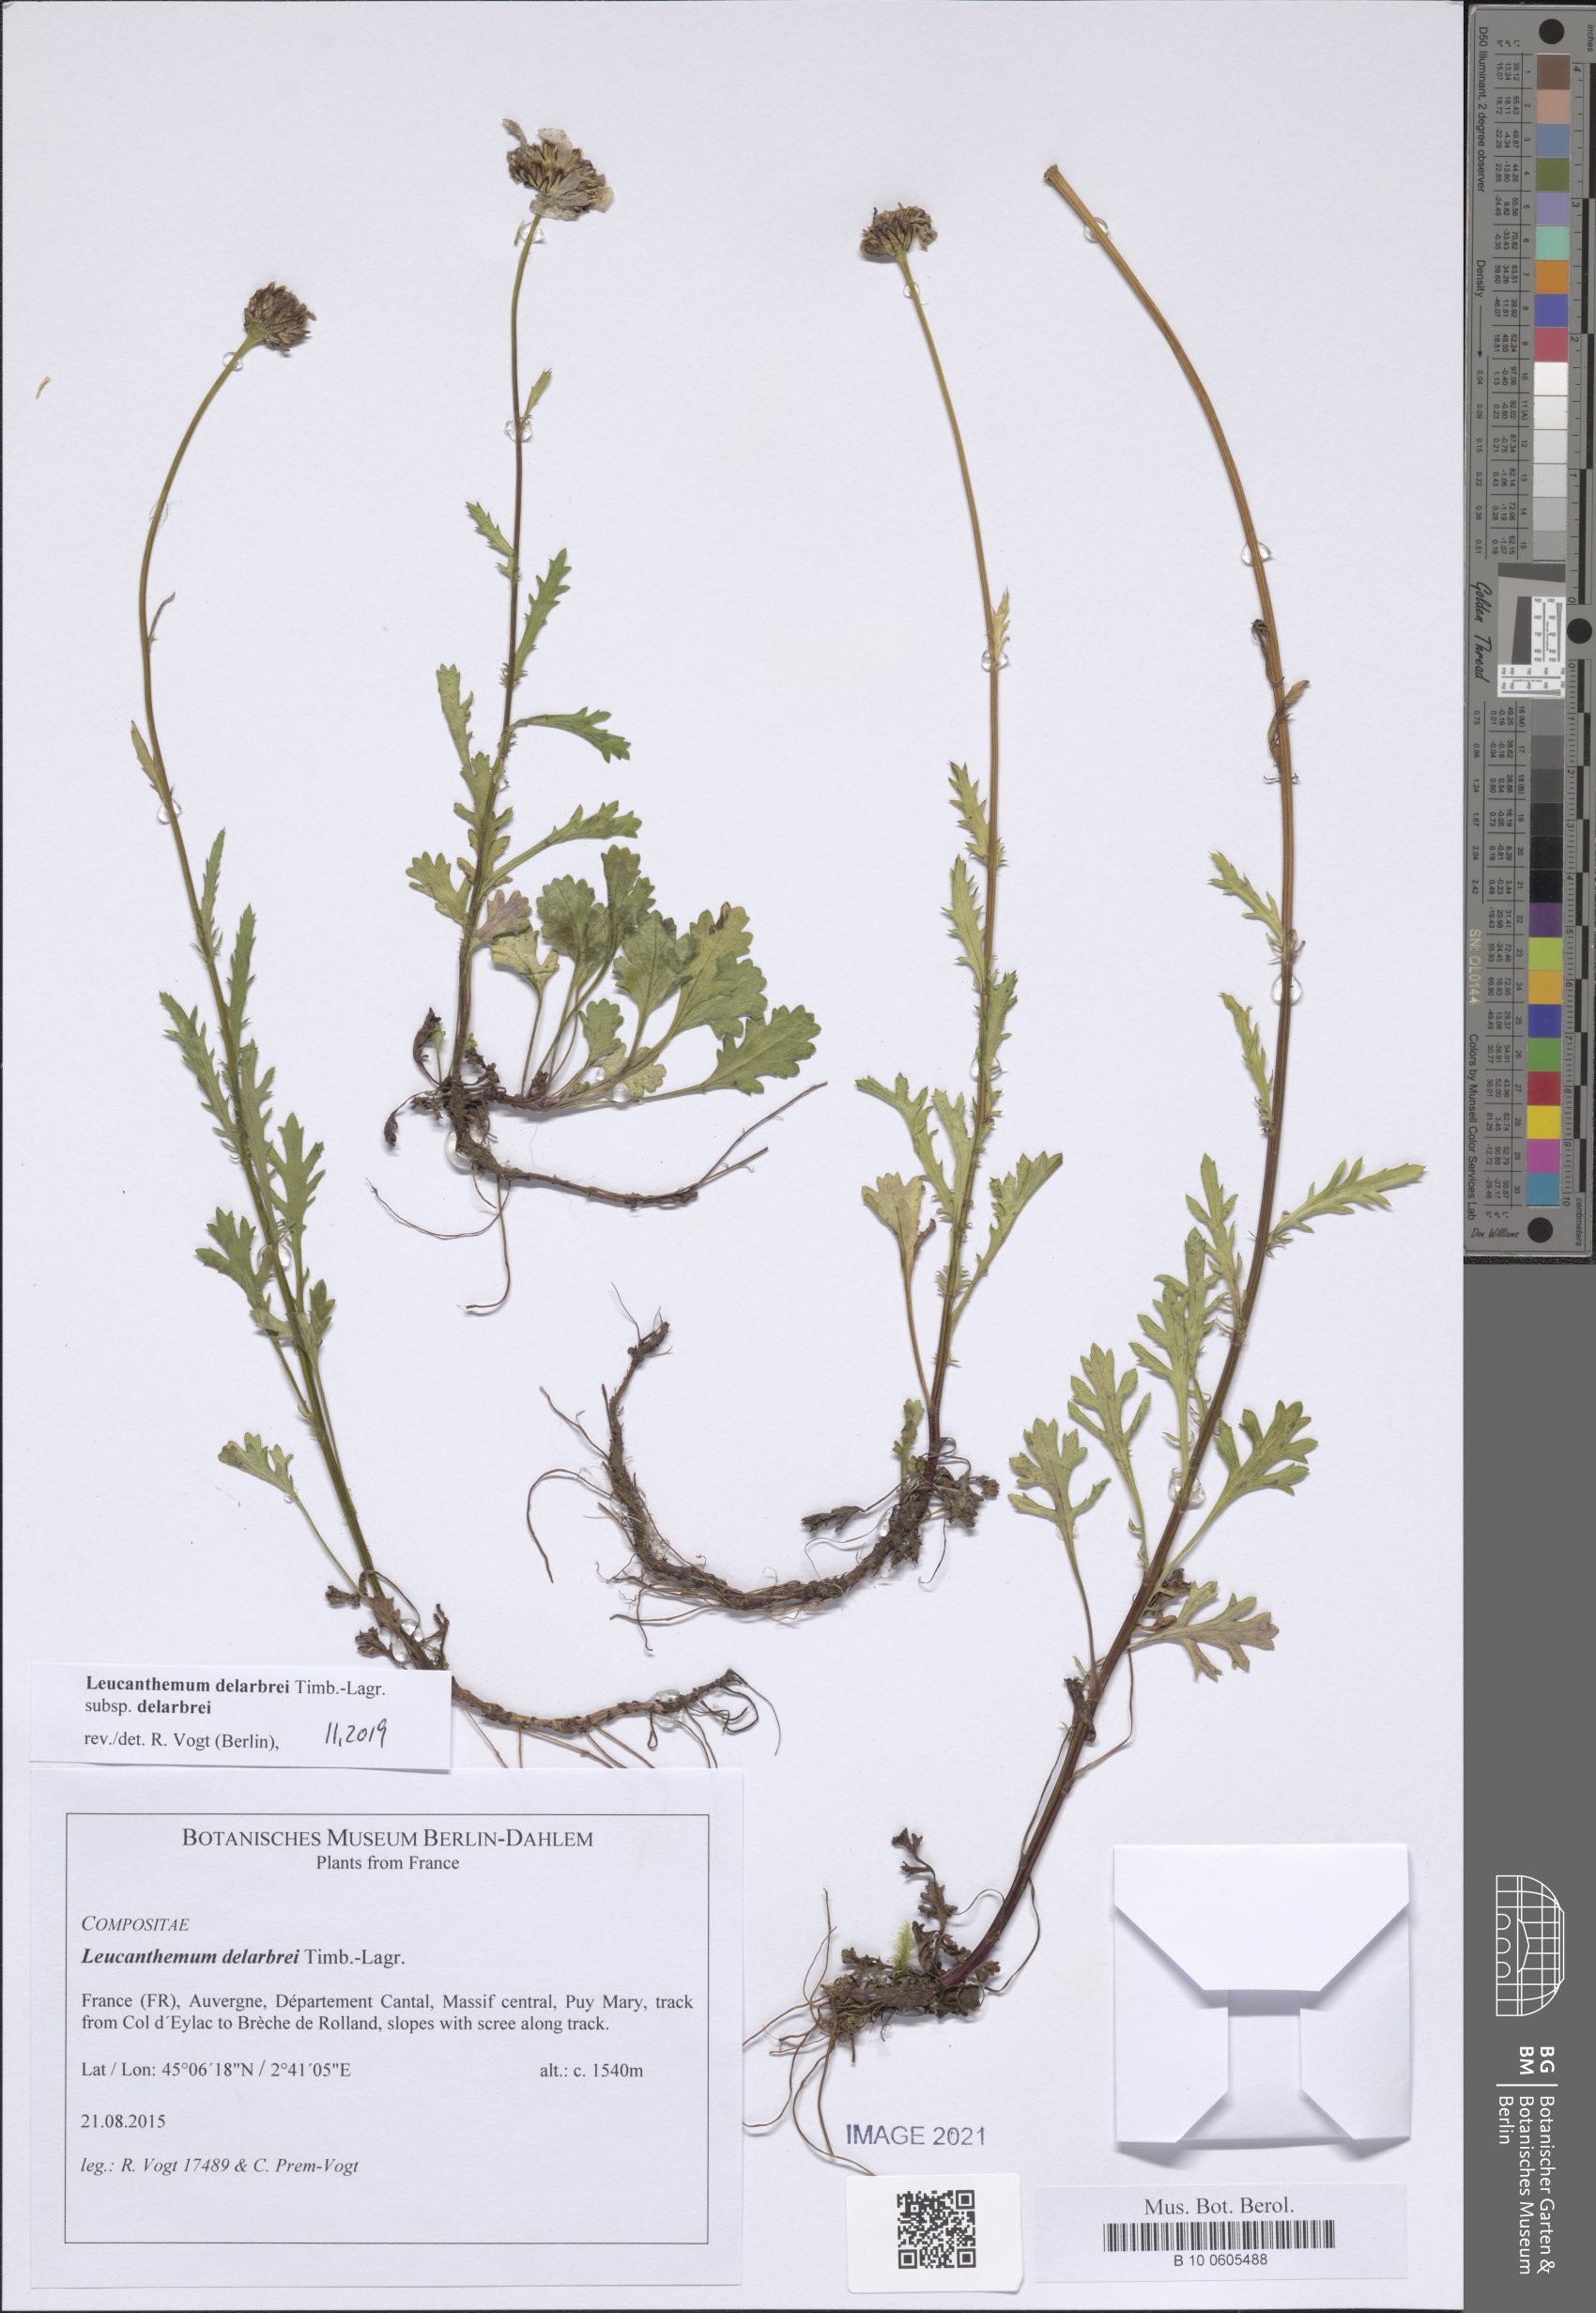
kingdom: Plantae
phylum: Tracheophyta
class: Magnoliopsida
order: Asterales
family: Asteraceae
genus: Leucanthemum
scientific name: Leucanthemum delarbrei
